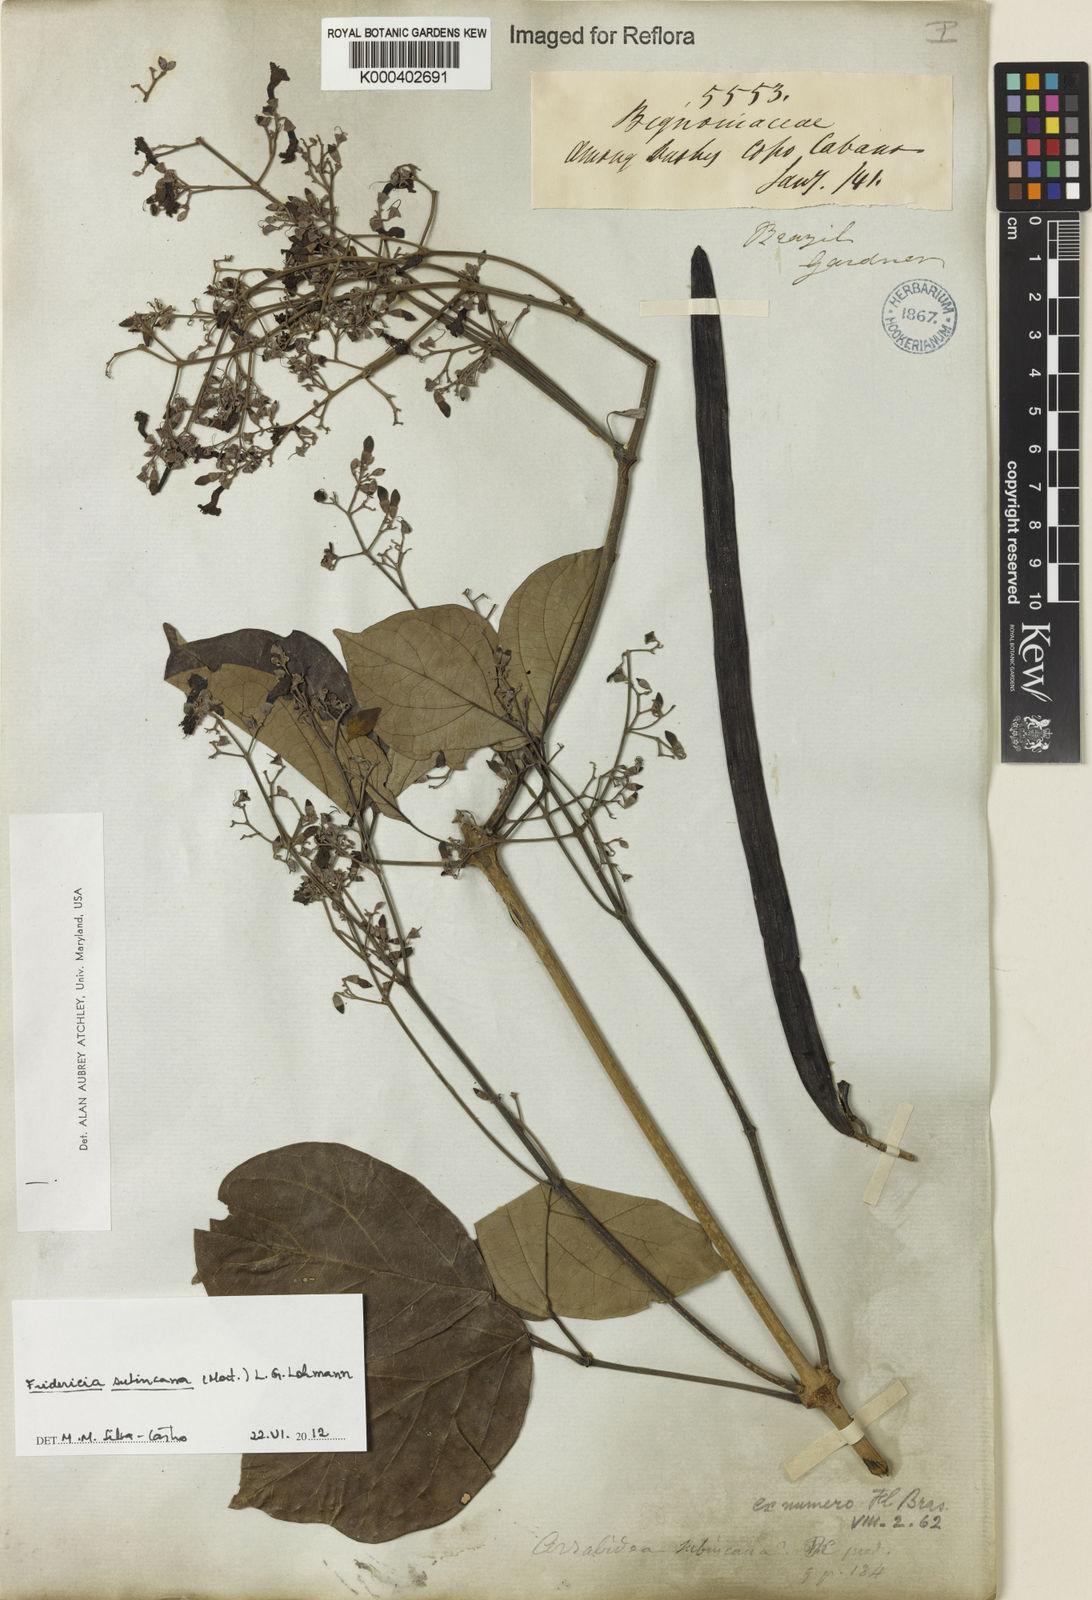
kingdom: Plantae
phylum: Tracheophyta
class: Magnoliopsida
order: Lamiales
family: Bignoniaceae
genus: Fridericia
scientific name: Fridericia subincana
